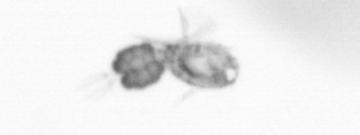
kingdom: Animalia
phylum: Arthropoda
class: Copepoda
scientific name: Copepoda
